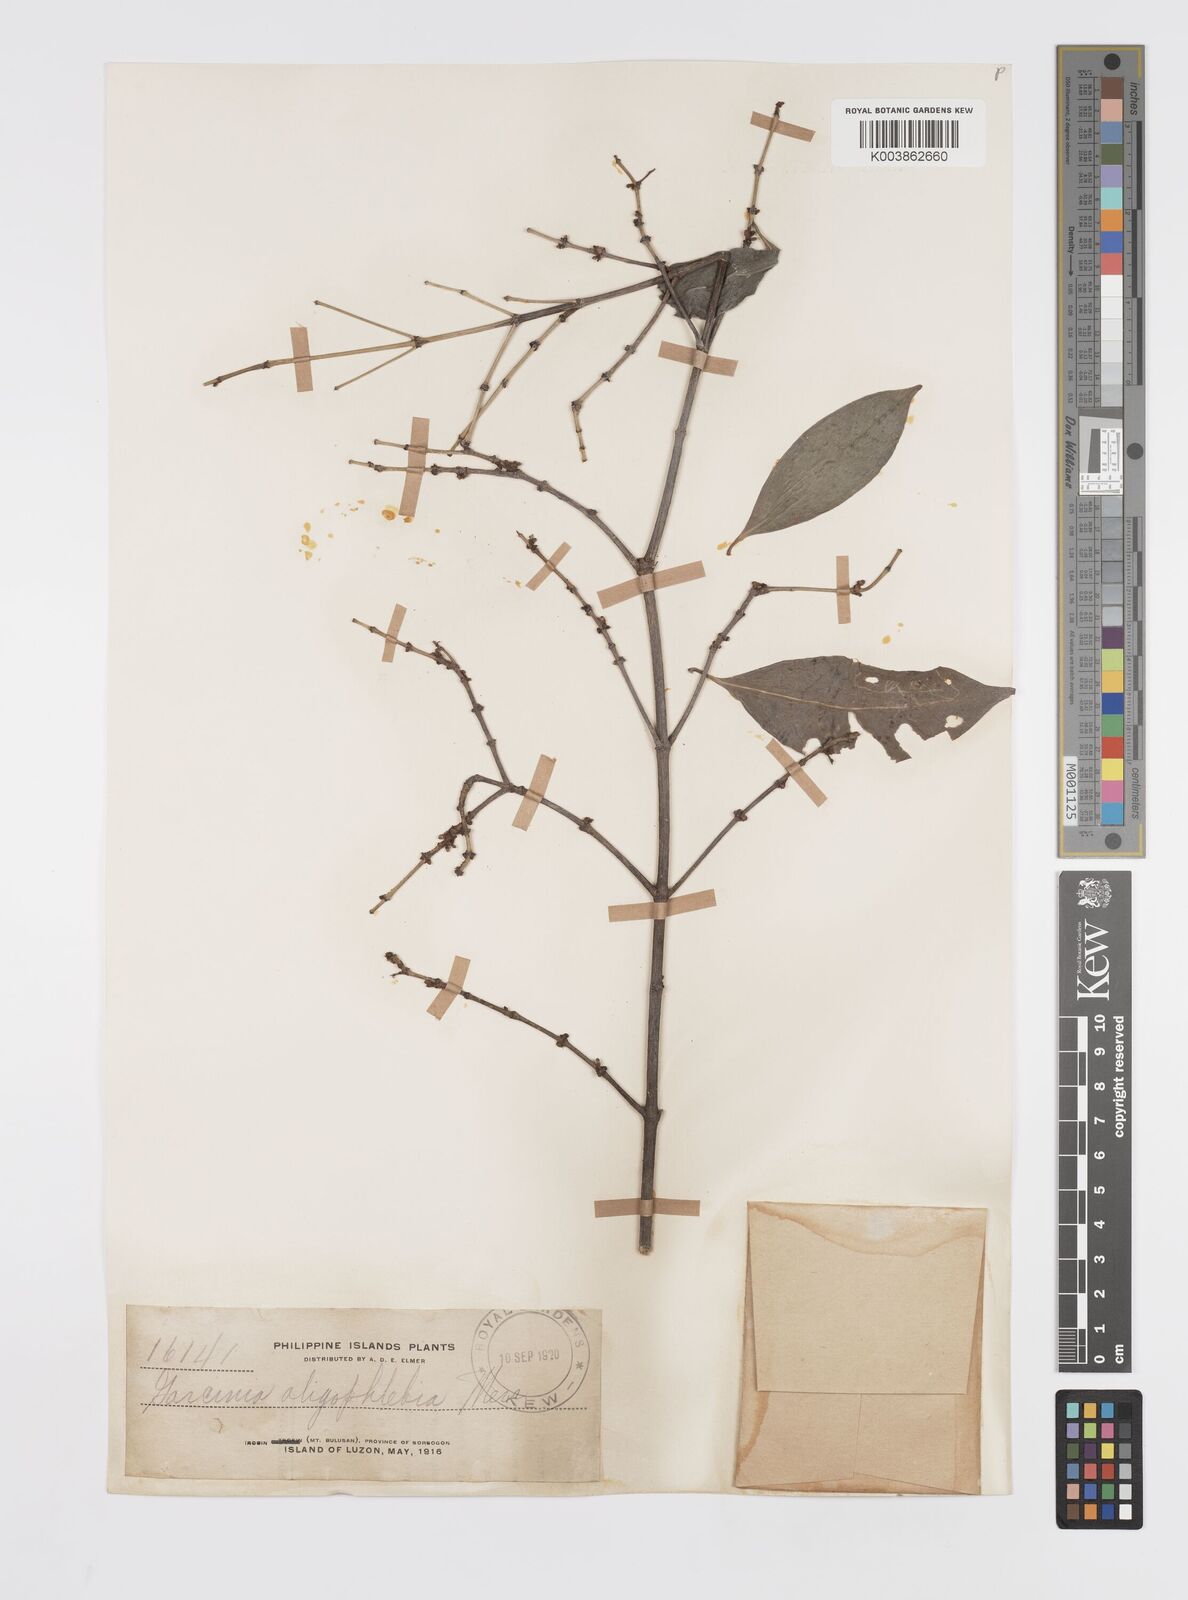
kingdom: Plantae
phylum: Tracheophyta
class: Magnoliopsida
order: Malpighiales
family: Clusiaceae
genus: Garcinia
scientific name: Garcinia rubra
